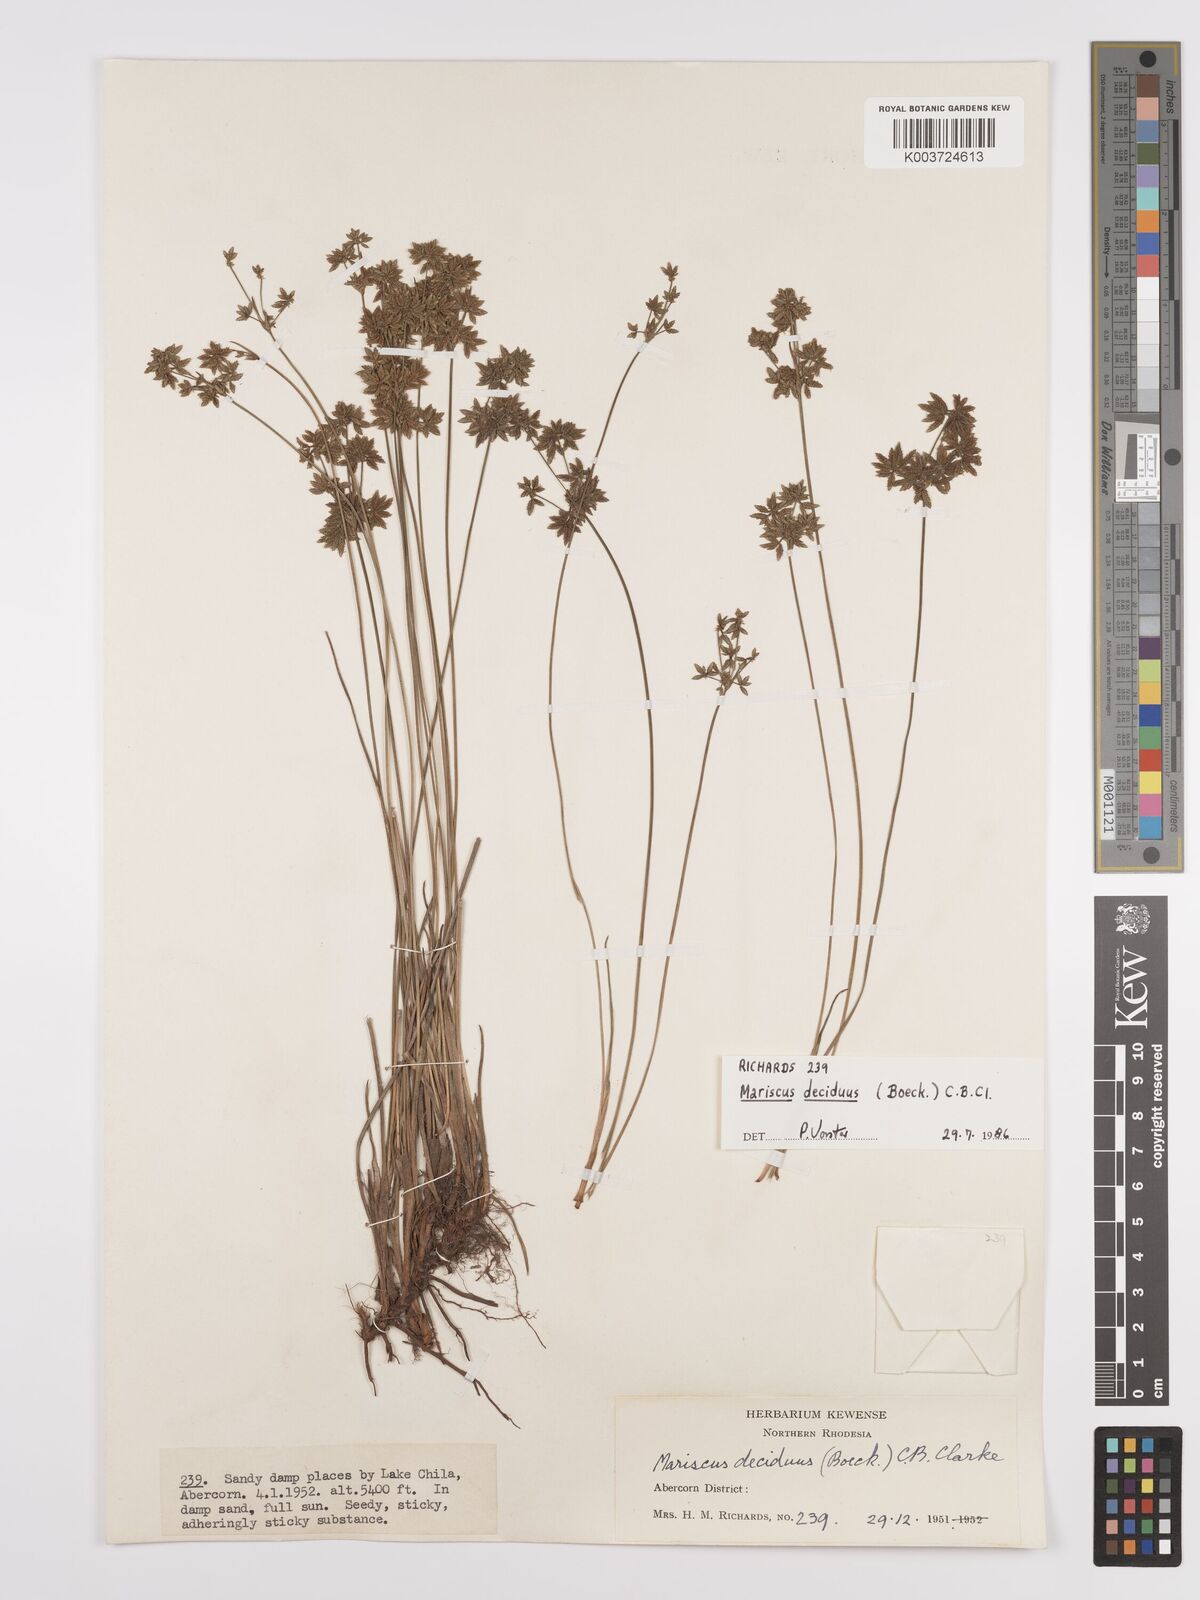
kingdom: Plantae
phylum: Tracheophyta
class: Liliopsida
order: Poales
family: Cyperaceae
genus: Cyperus
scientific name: Cyperus deciduus
